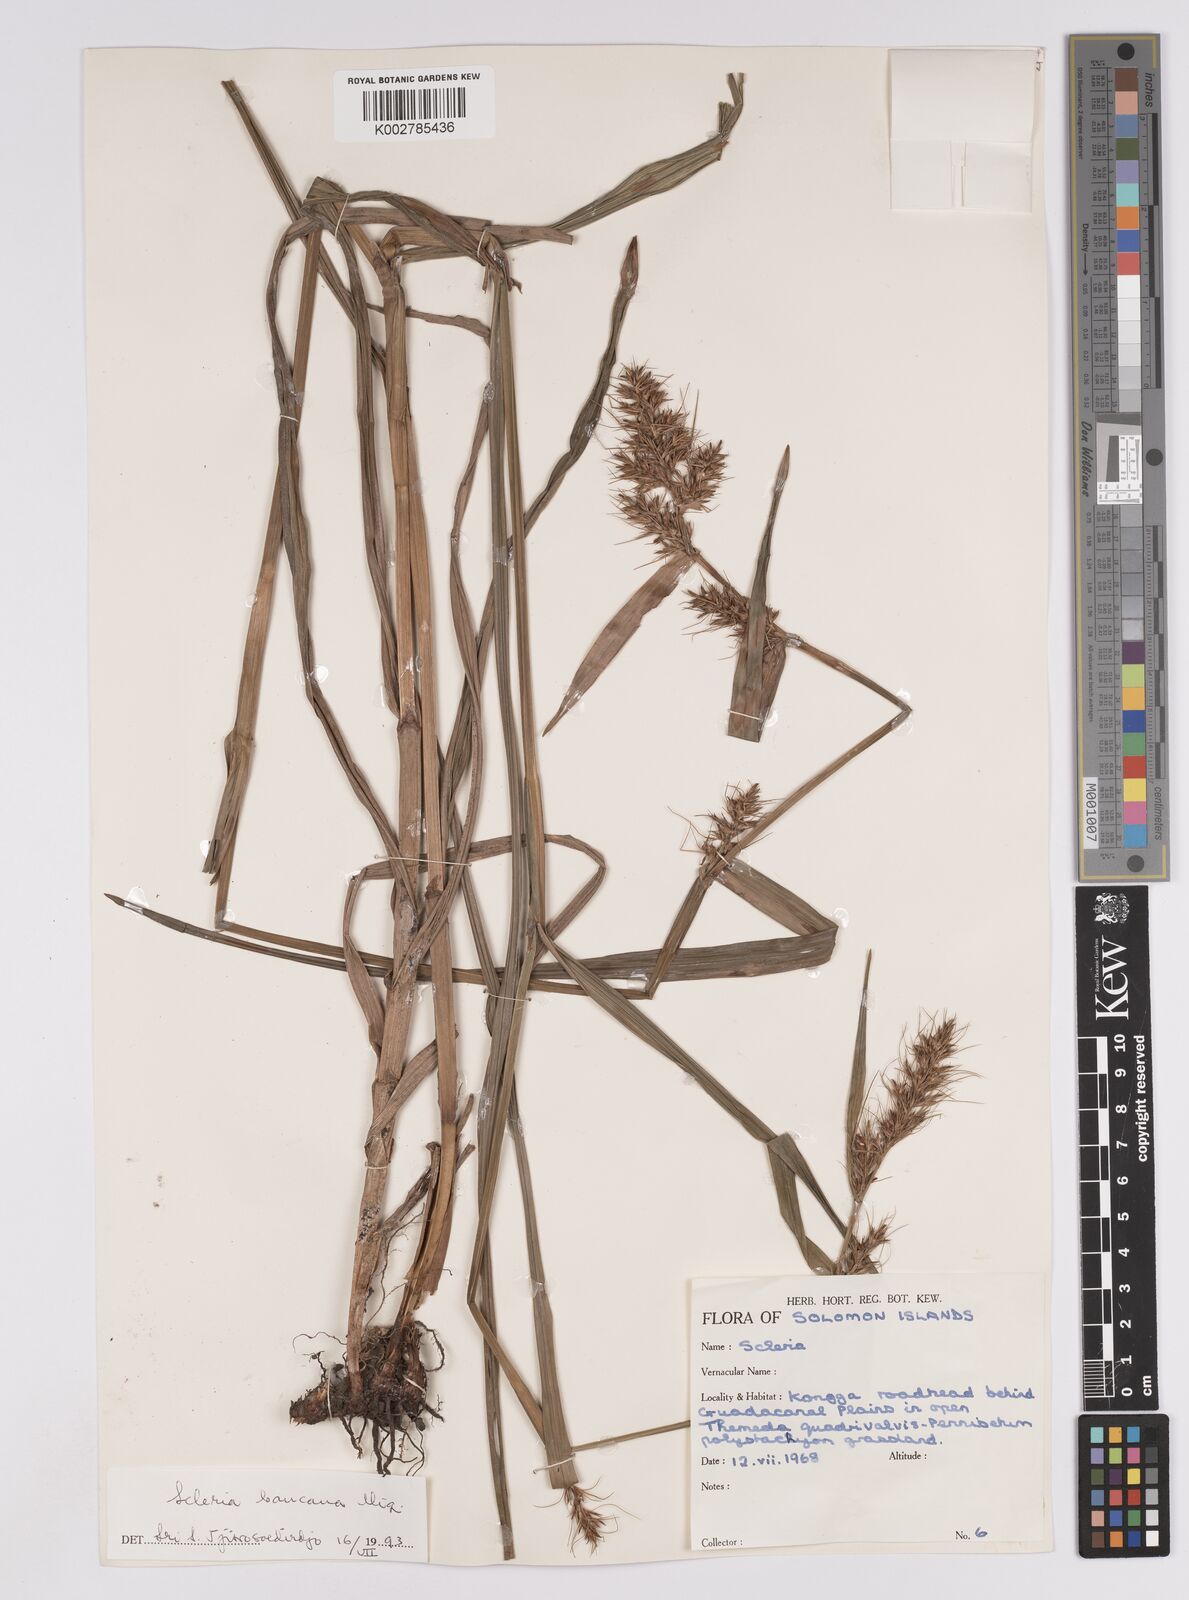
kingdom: Plantae
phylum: Tracheophyta
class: Liliopsida
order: Poales
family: Cyperaceae
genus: Scleria
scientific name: Scleria ciliaris
